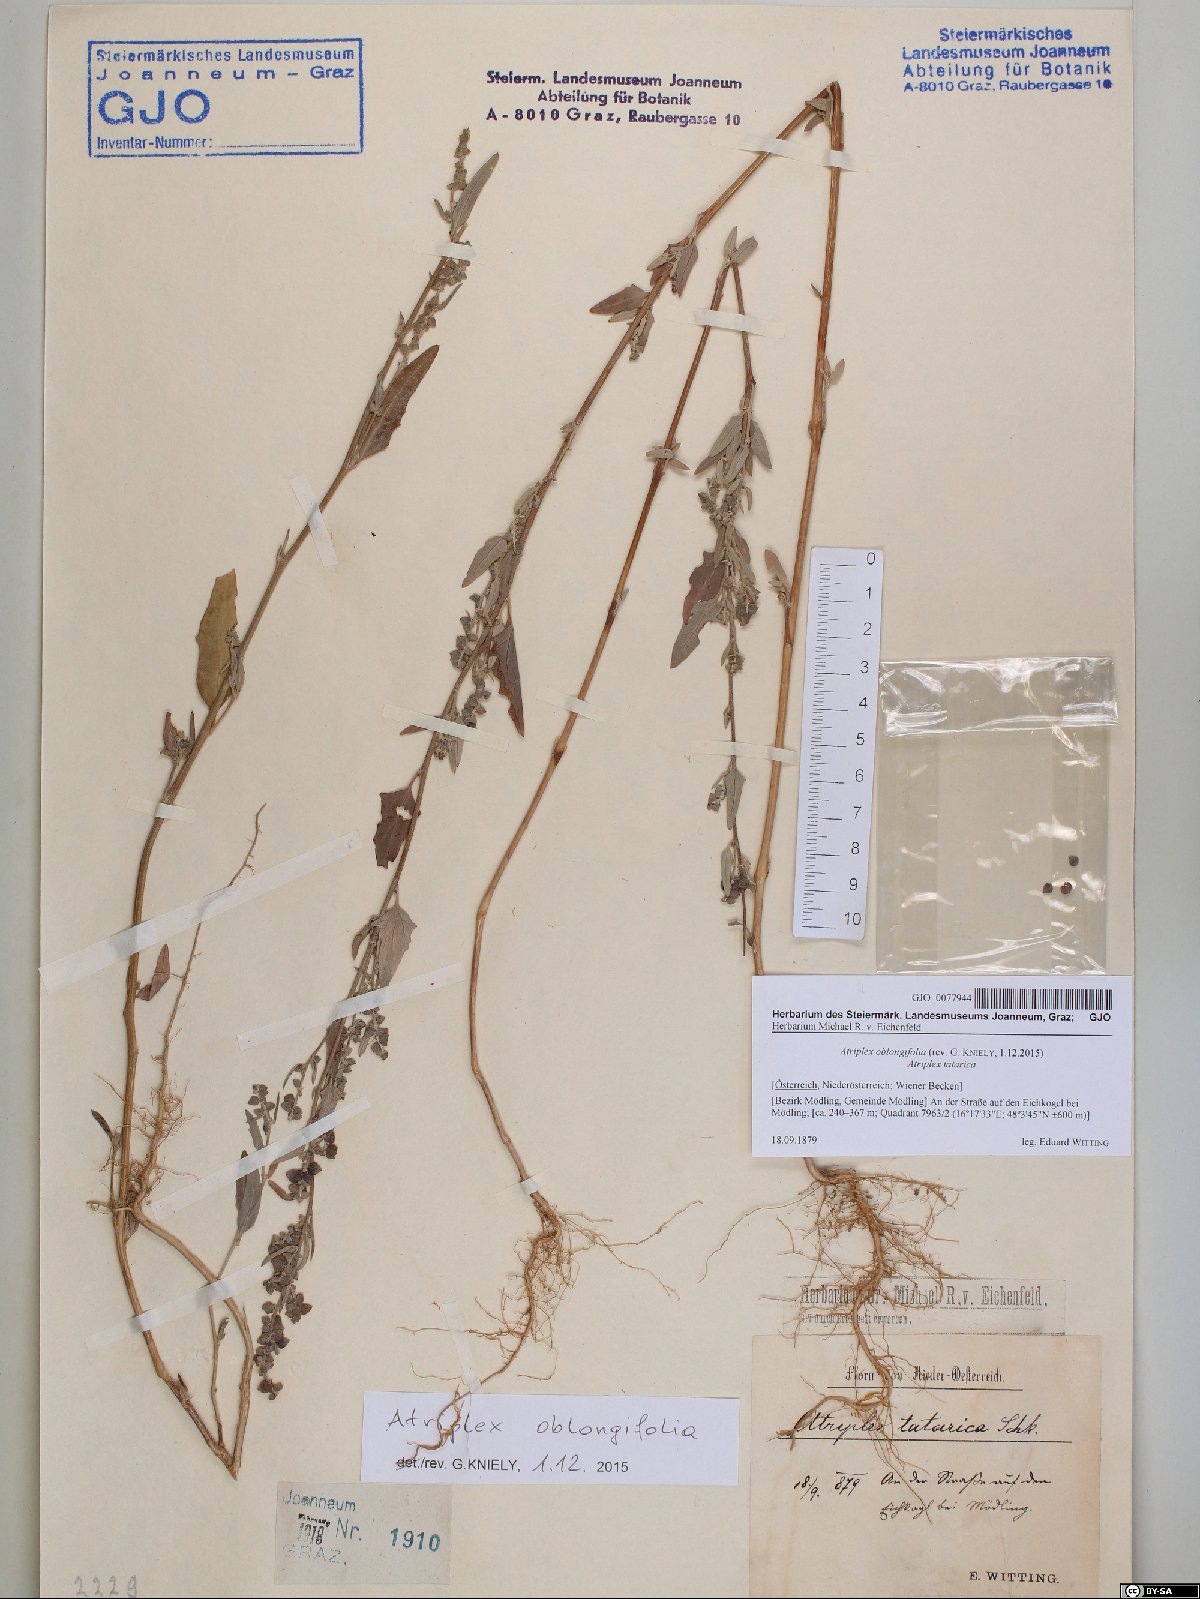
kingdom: Plantae
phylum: Tracheophyta
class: Magnoliopsida
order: Caryophyllales
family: Amaranthaceae
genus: Atriplex
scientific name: Atriplex oblongifolia
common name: Oblongleaf orache
